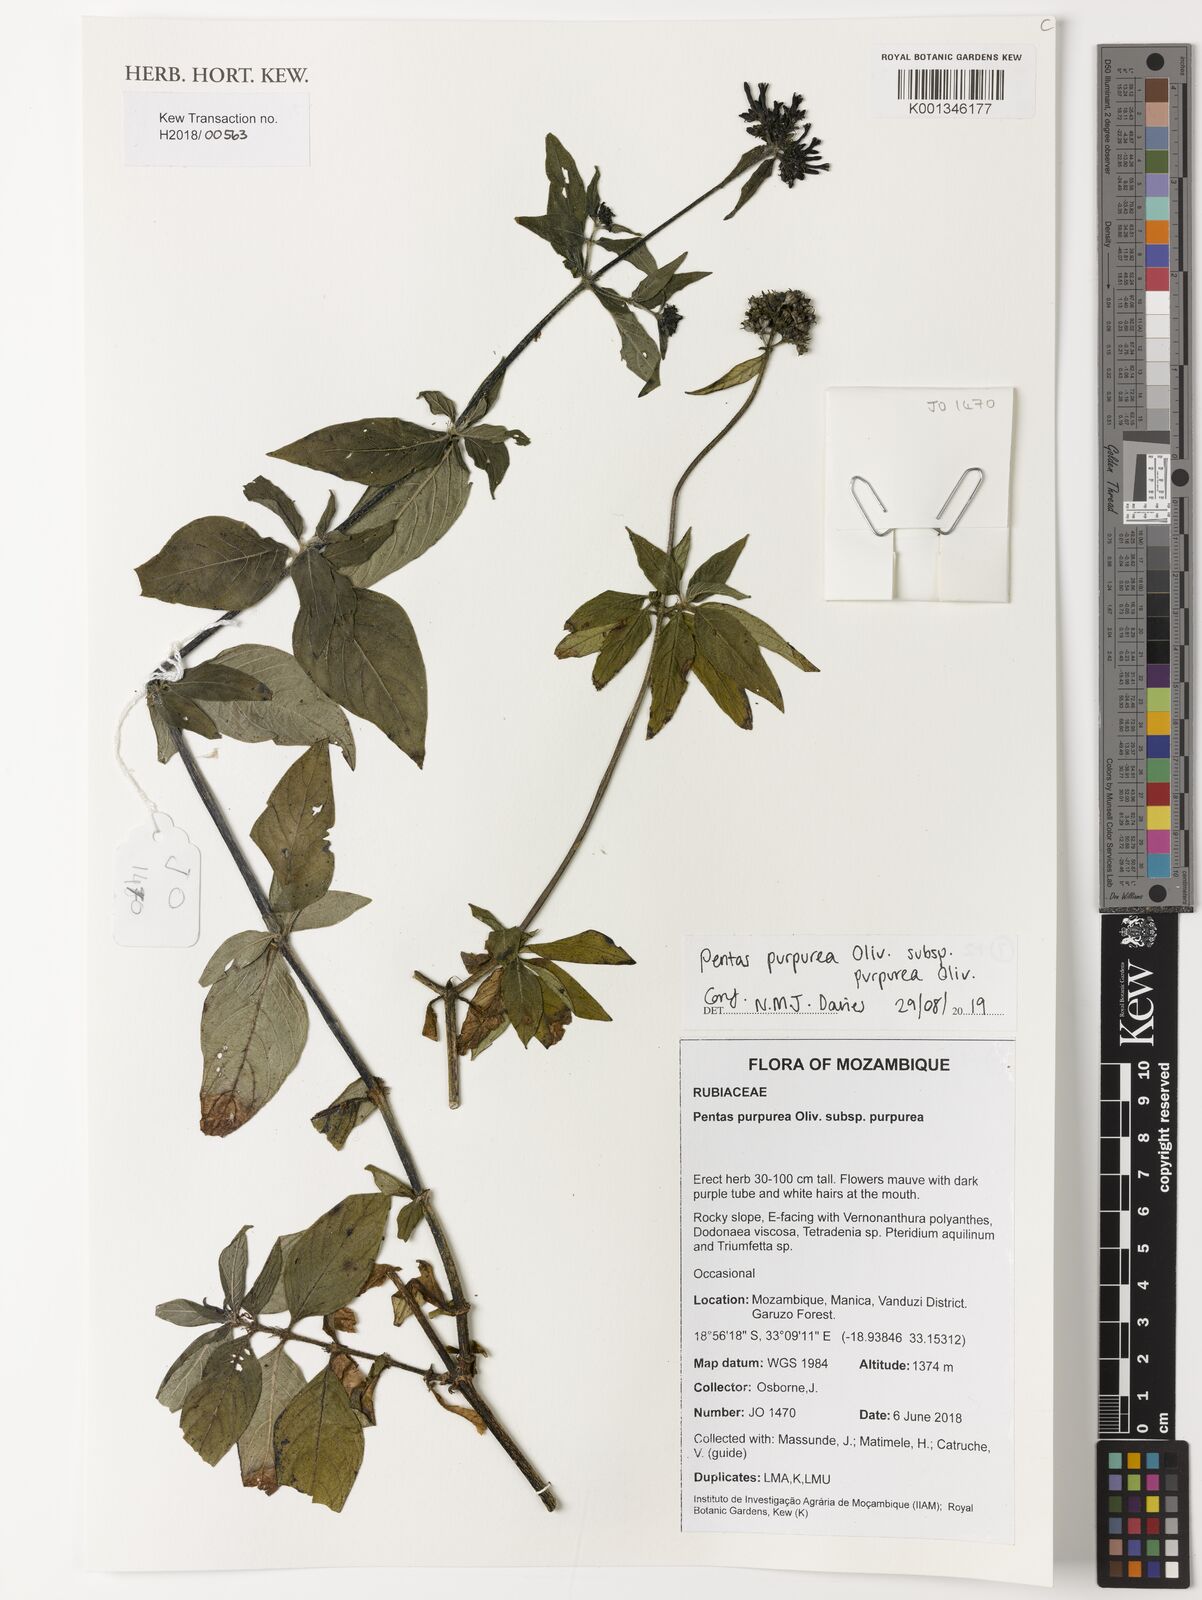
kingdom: Plantae
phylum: Tracheophyta
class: Magnoliopsida
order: Gentianales
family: Rubiaceae
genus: Pentas
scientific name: Pentas purpurea
